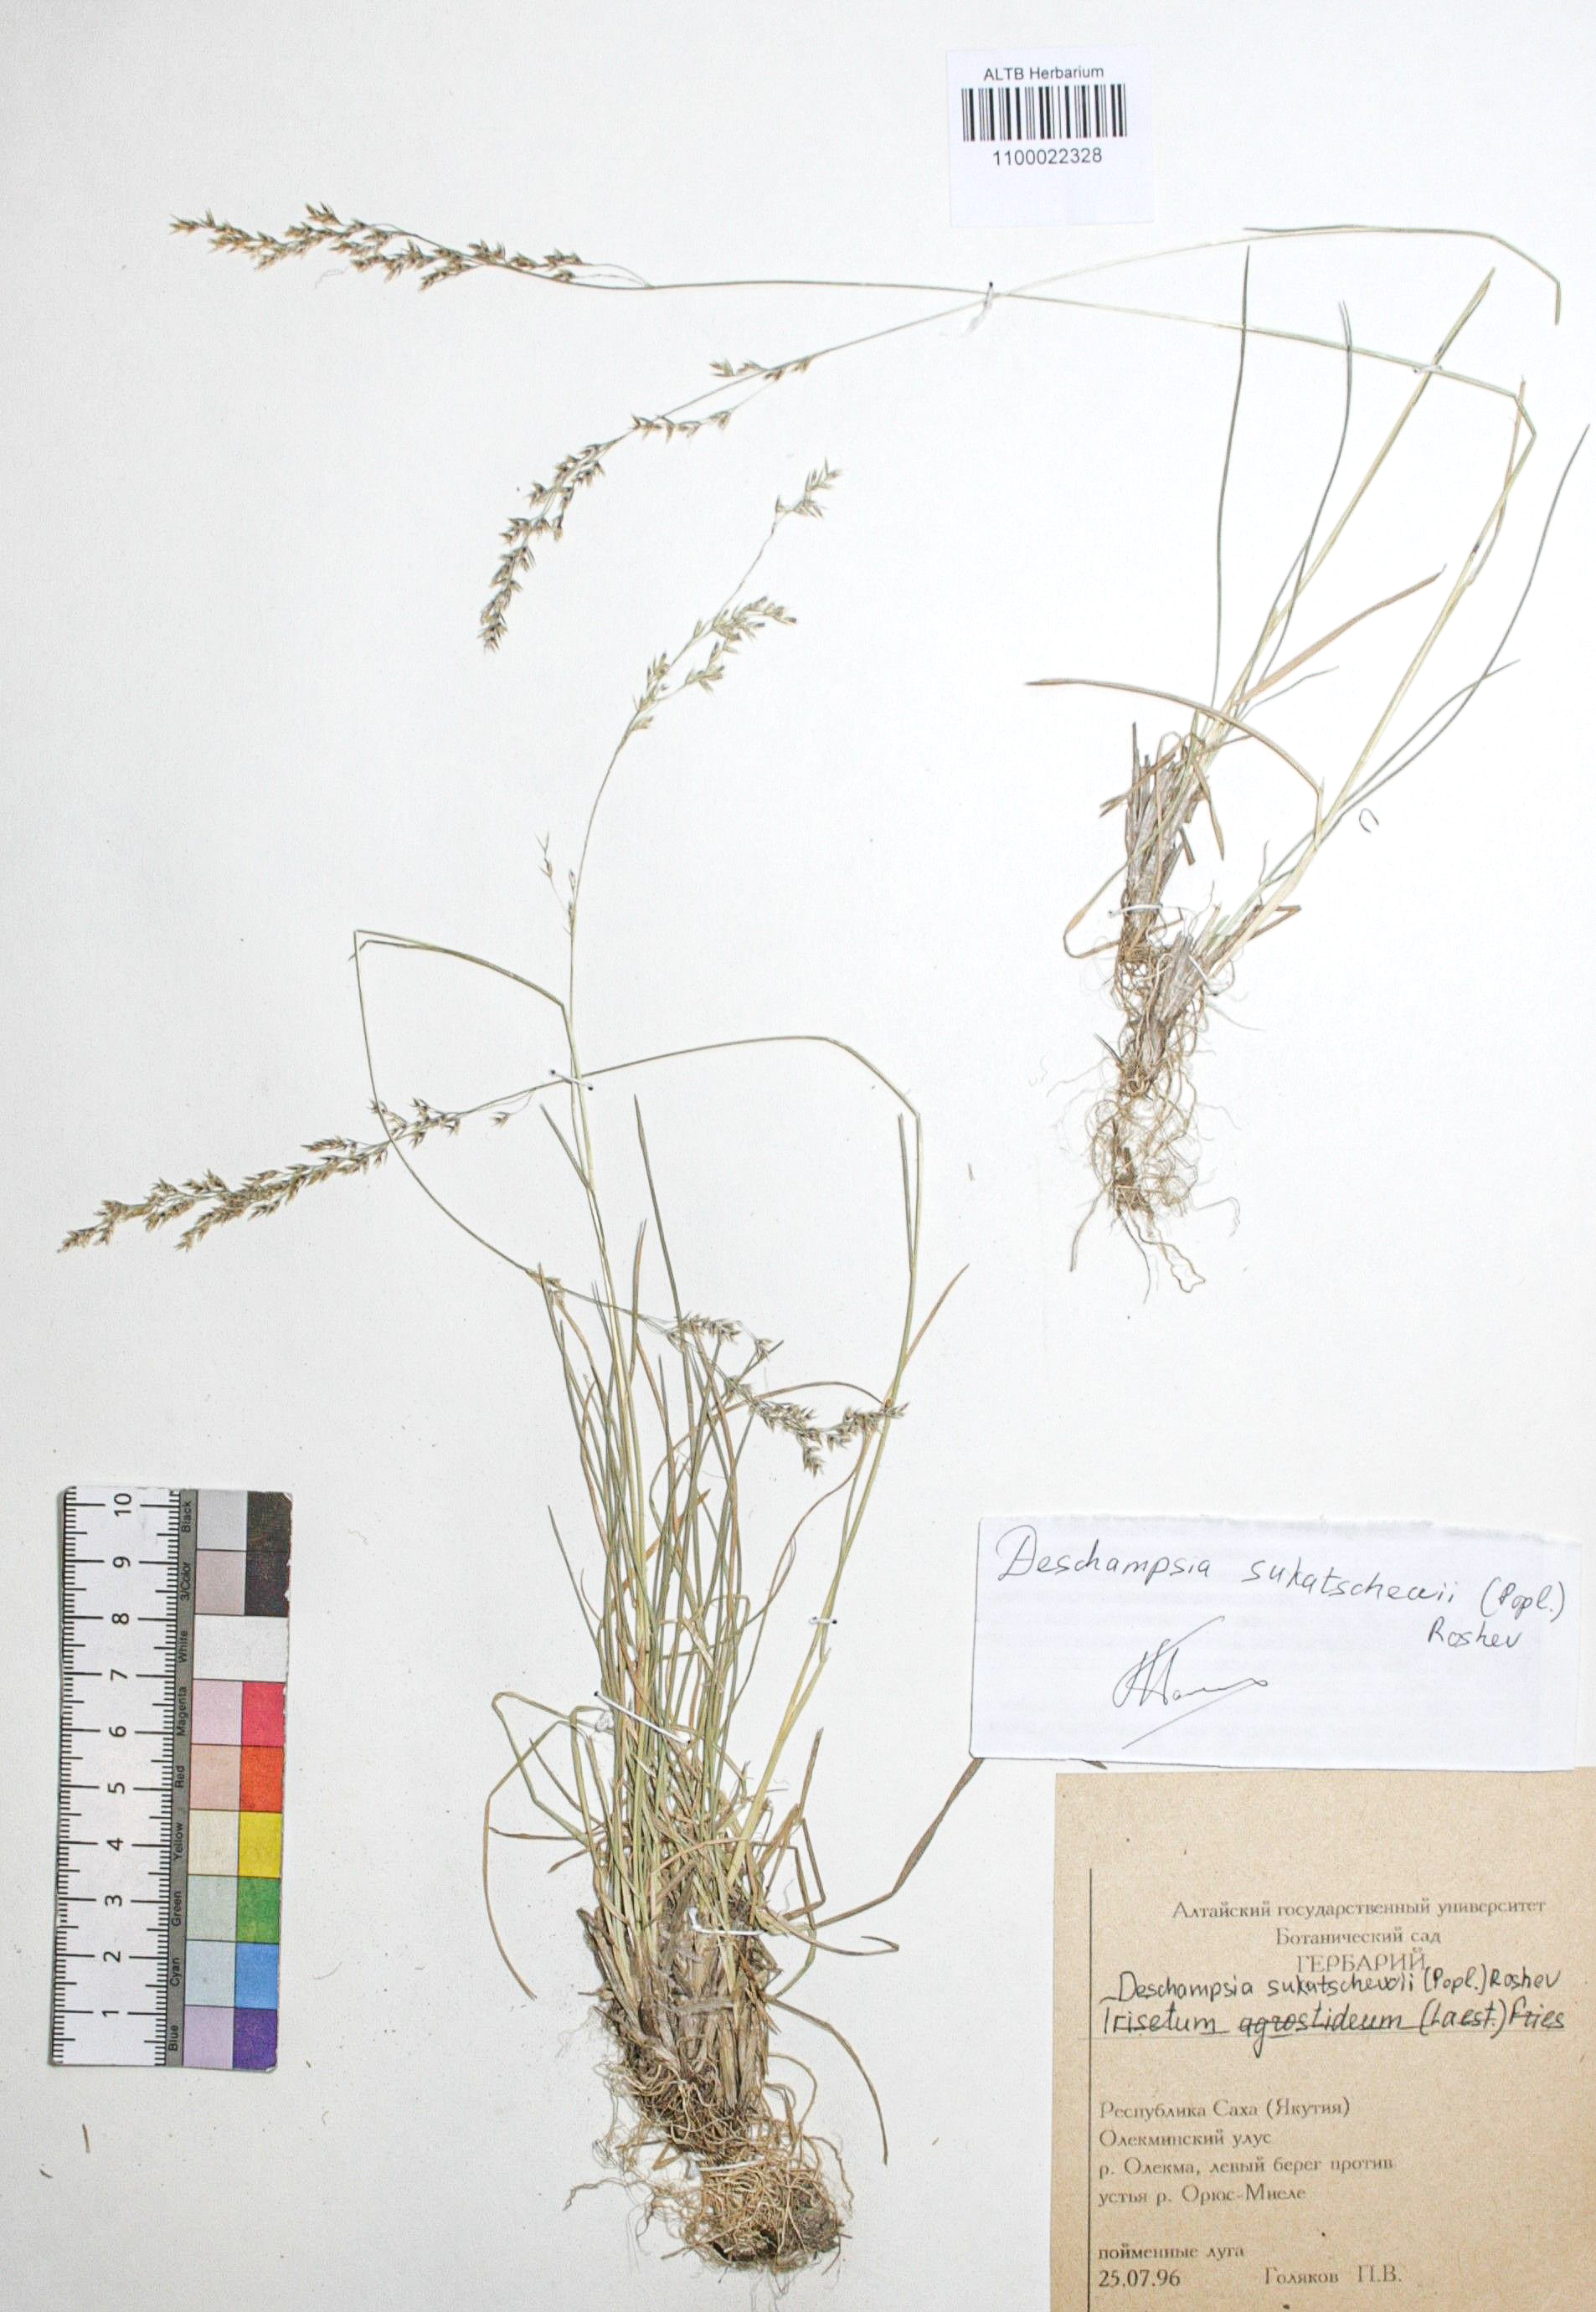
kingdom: Plantae
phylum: Tracheophyta
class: Liliopsida
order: Poales
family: Poaceae
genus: Deschampsia
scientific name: Deschampsia cespitosa
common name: Tufted hair-grass
